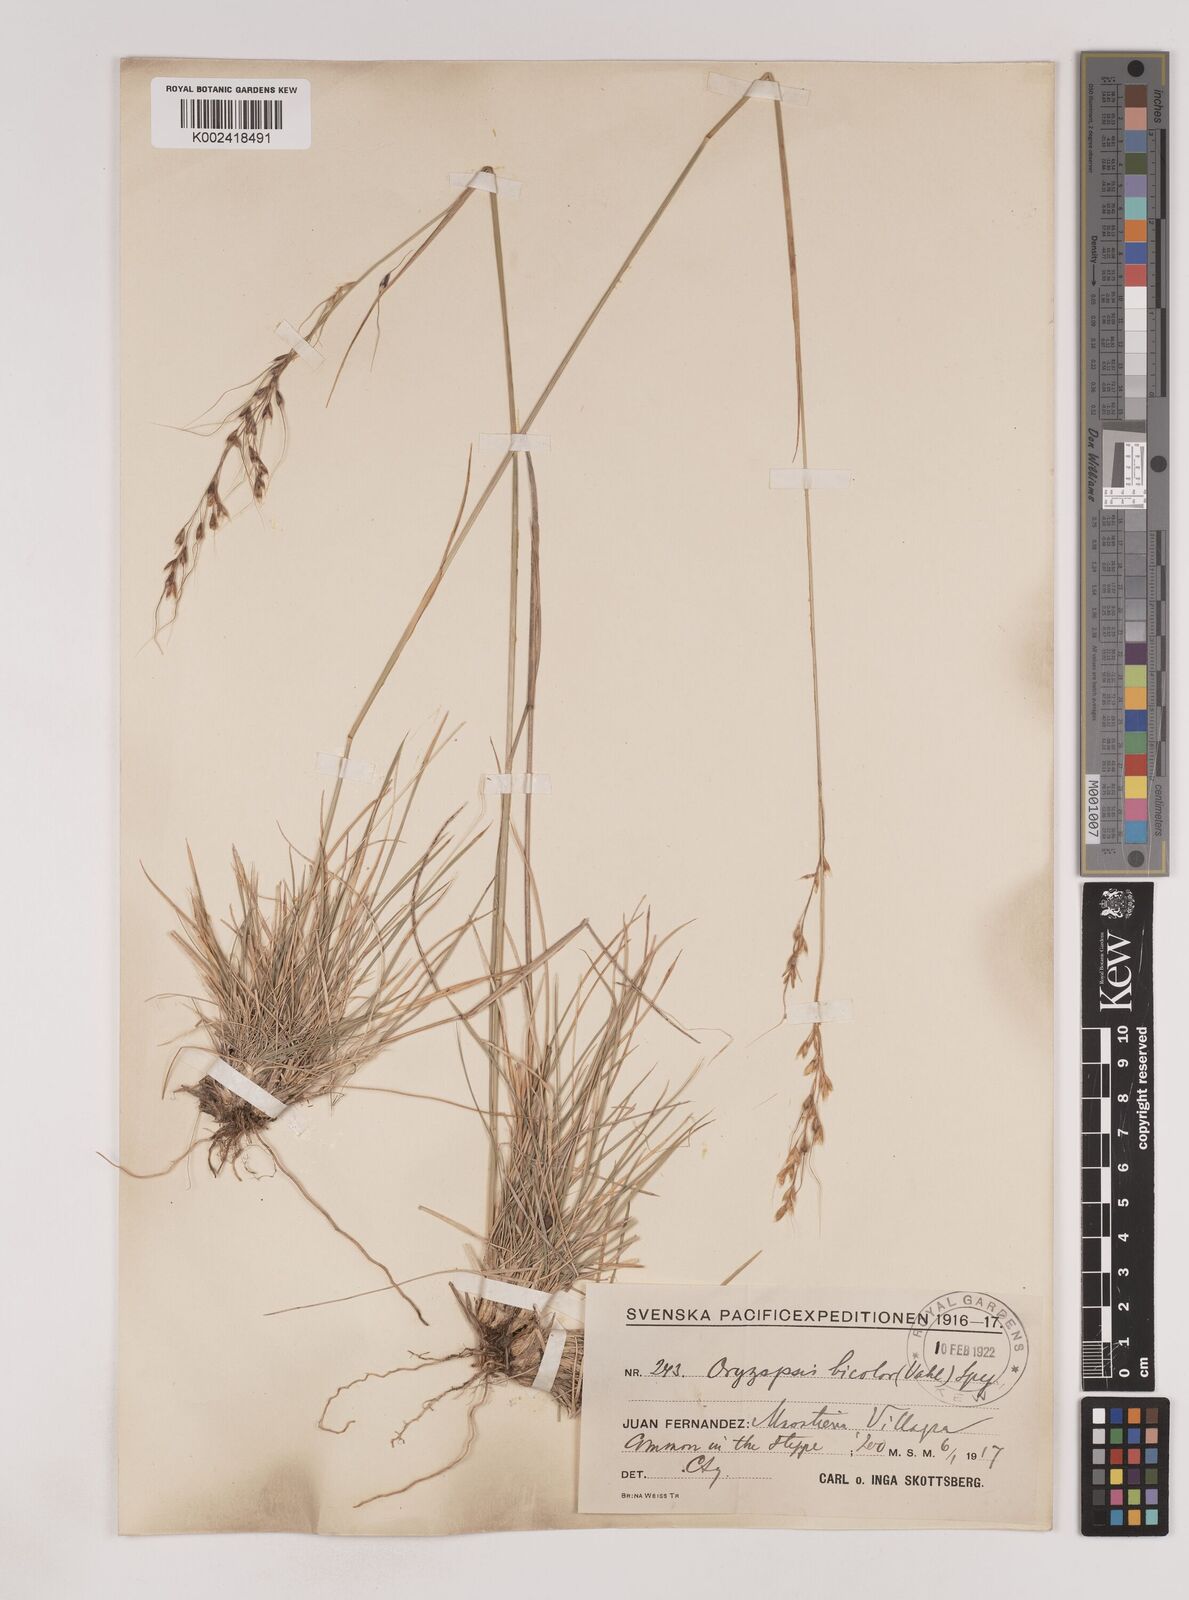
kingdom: Plantae
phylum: Tracheophyta
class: Liliopsida
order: Poales
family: Poaceae
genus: Piptochaetium
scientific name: Piptochaetium bicolor
